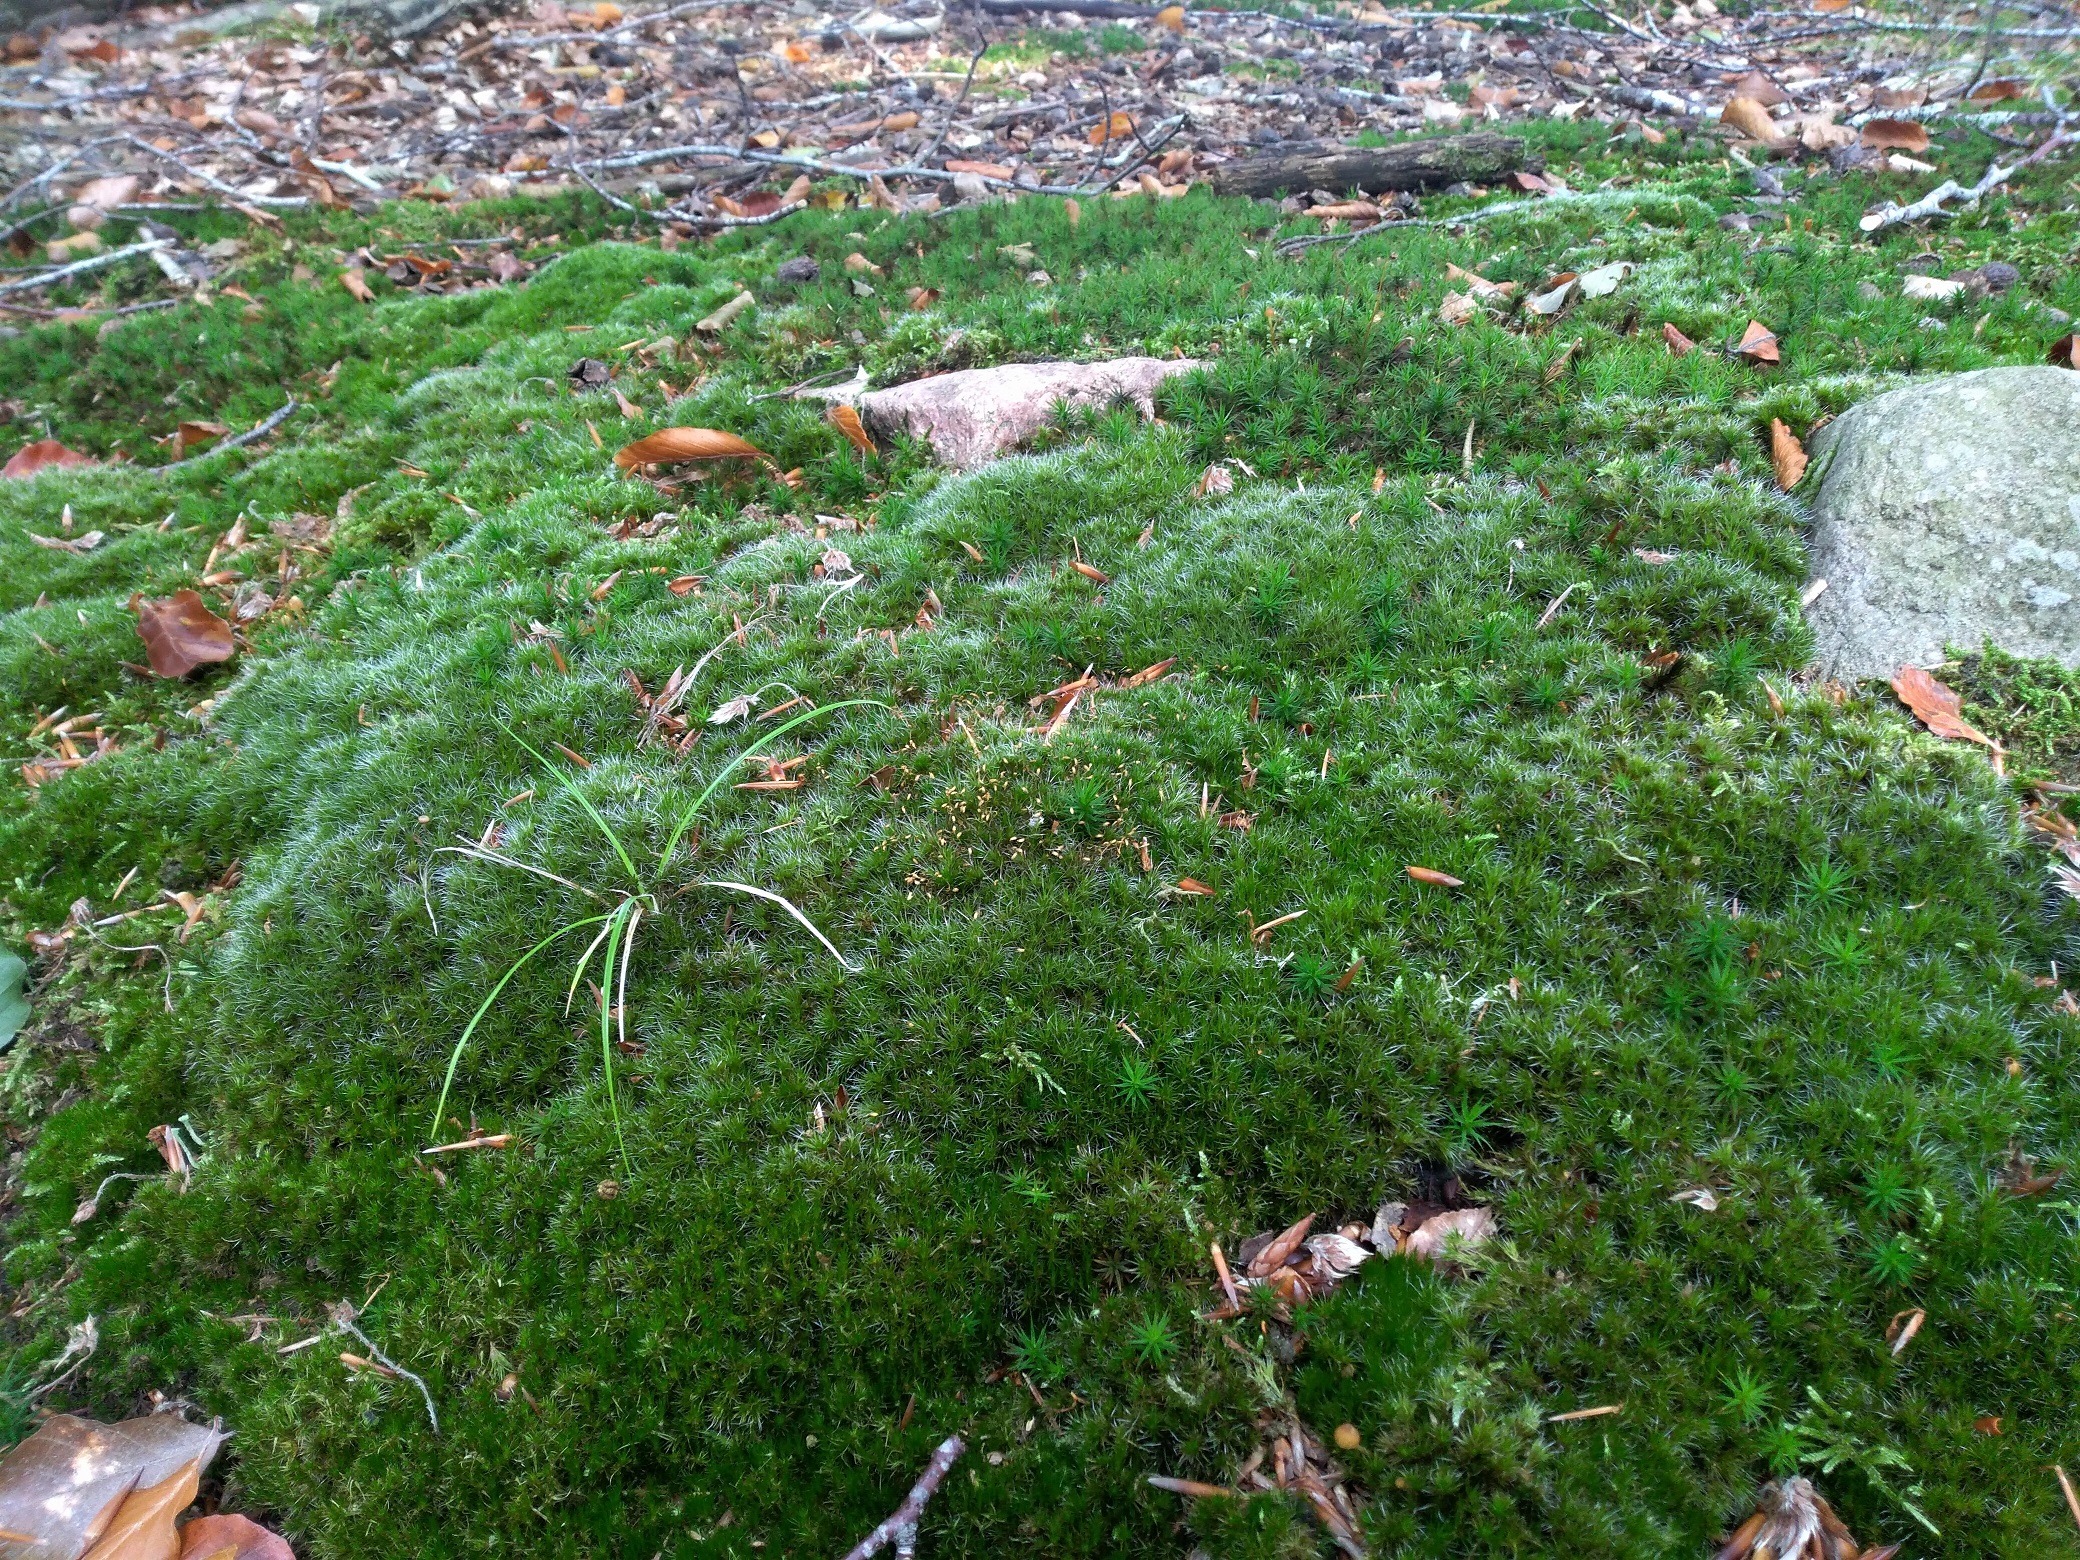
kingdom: Plantae
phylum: Bryophyta
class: Bryopsida
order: Dicranales
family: Leucobryaceae
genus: Campylopus
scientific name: Campylopus introflexus
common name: Stjerne-bredribbe
